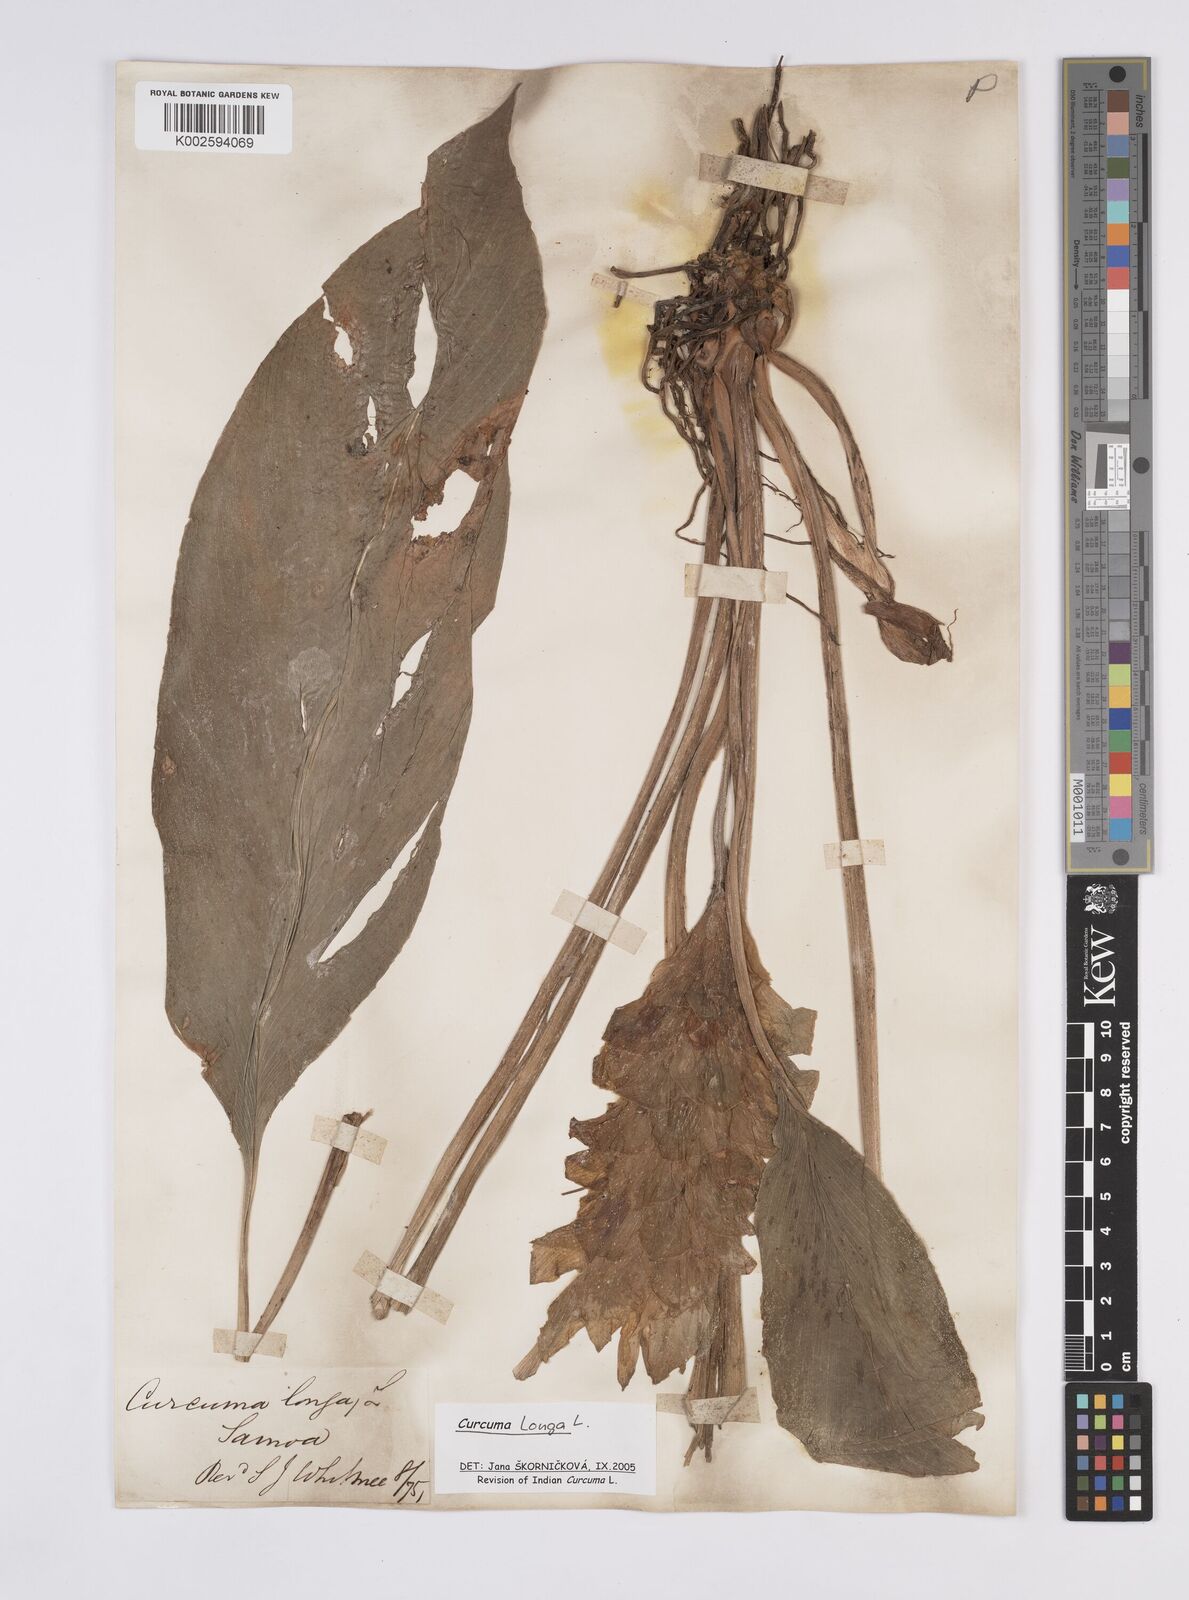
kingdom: Plantae
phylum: Tracheophyta
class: Liliopsida
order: Zingiberales
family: Zingiberaceae
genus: Curcuma
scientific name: Curcuma longa
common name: Turmeric
